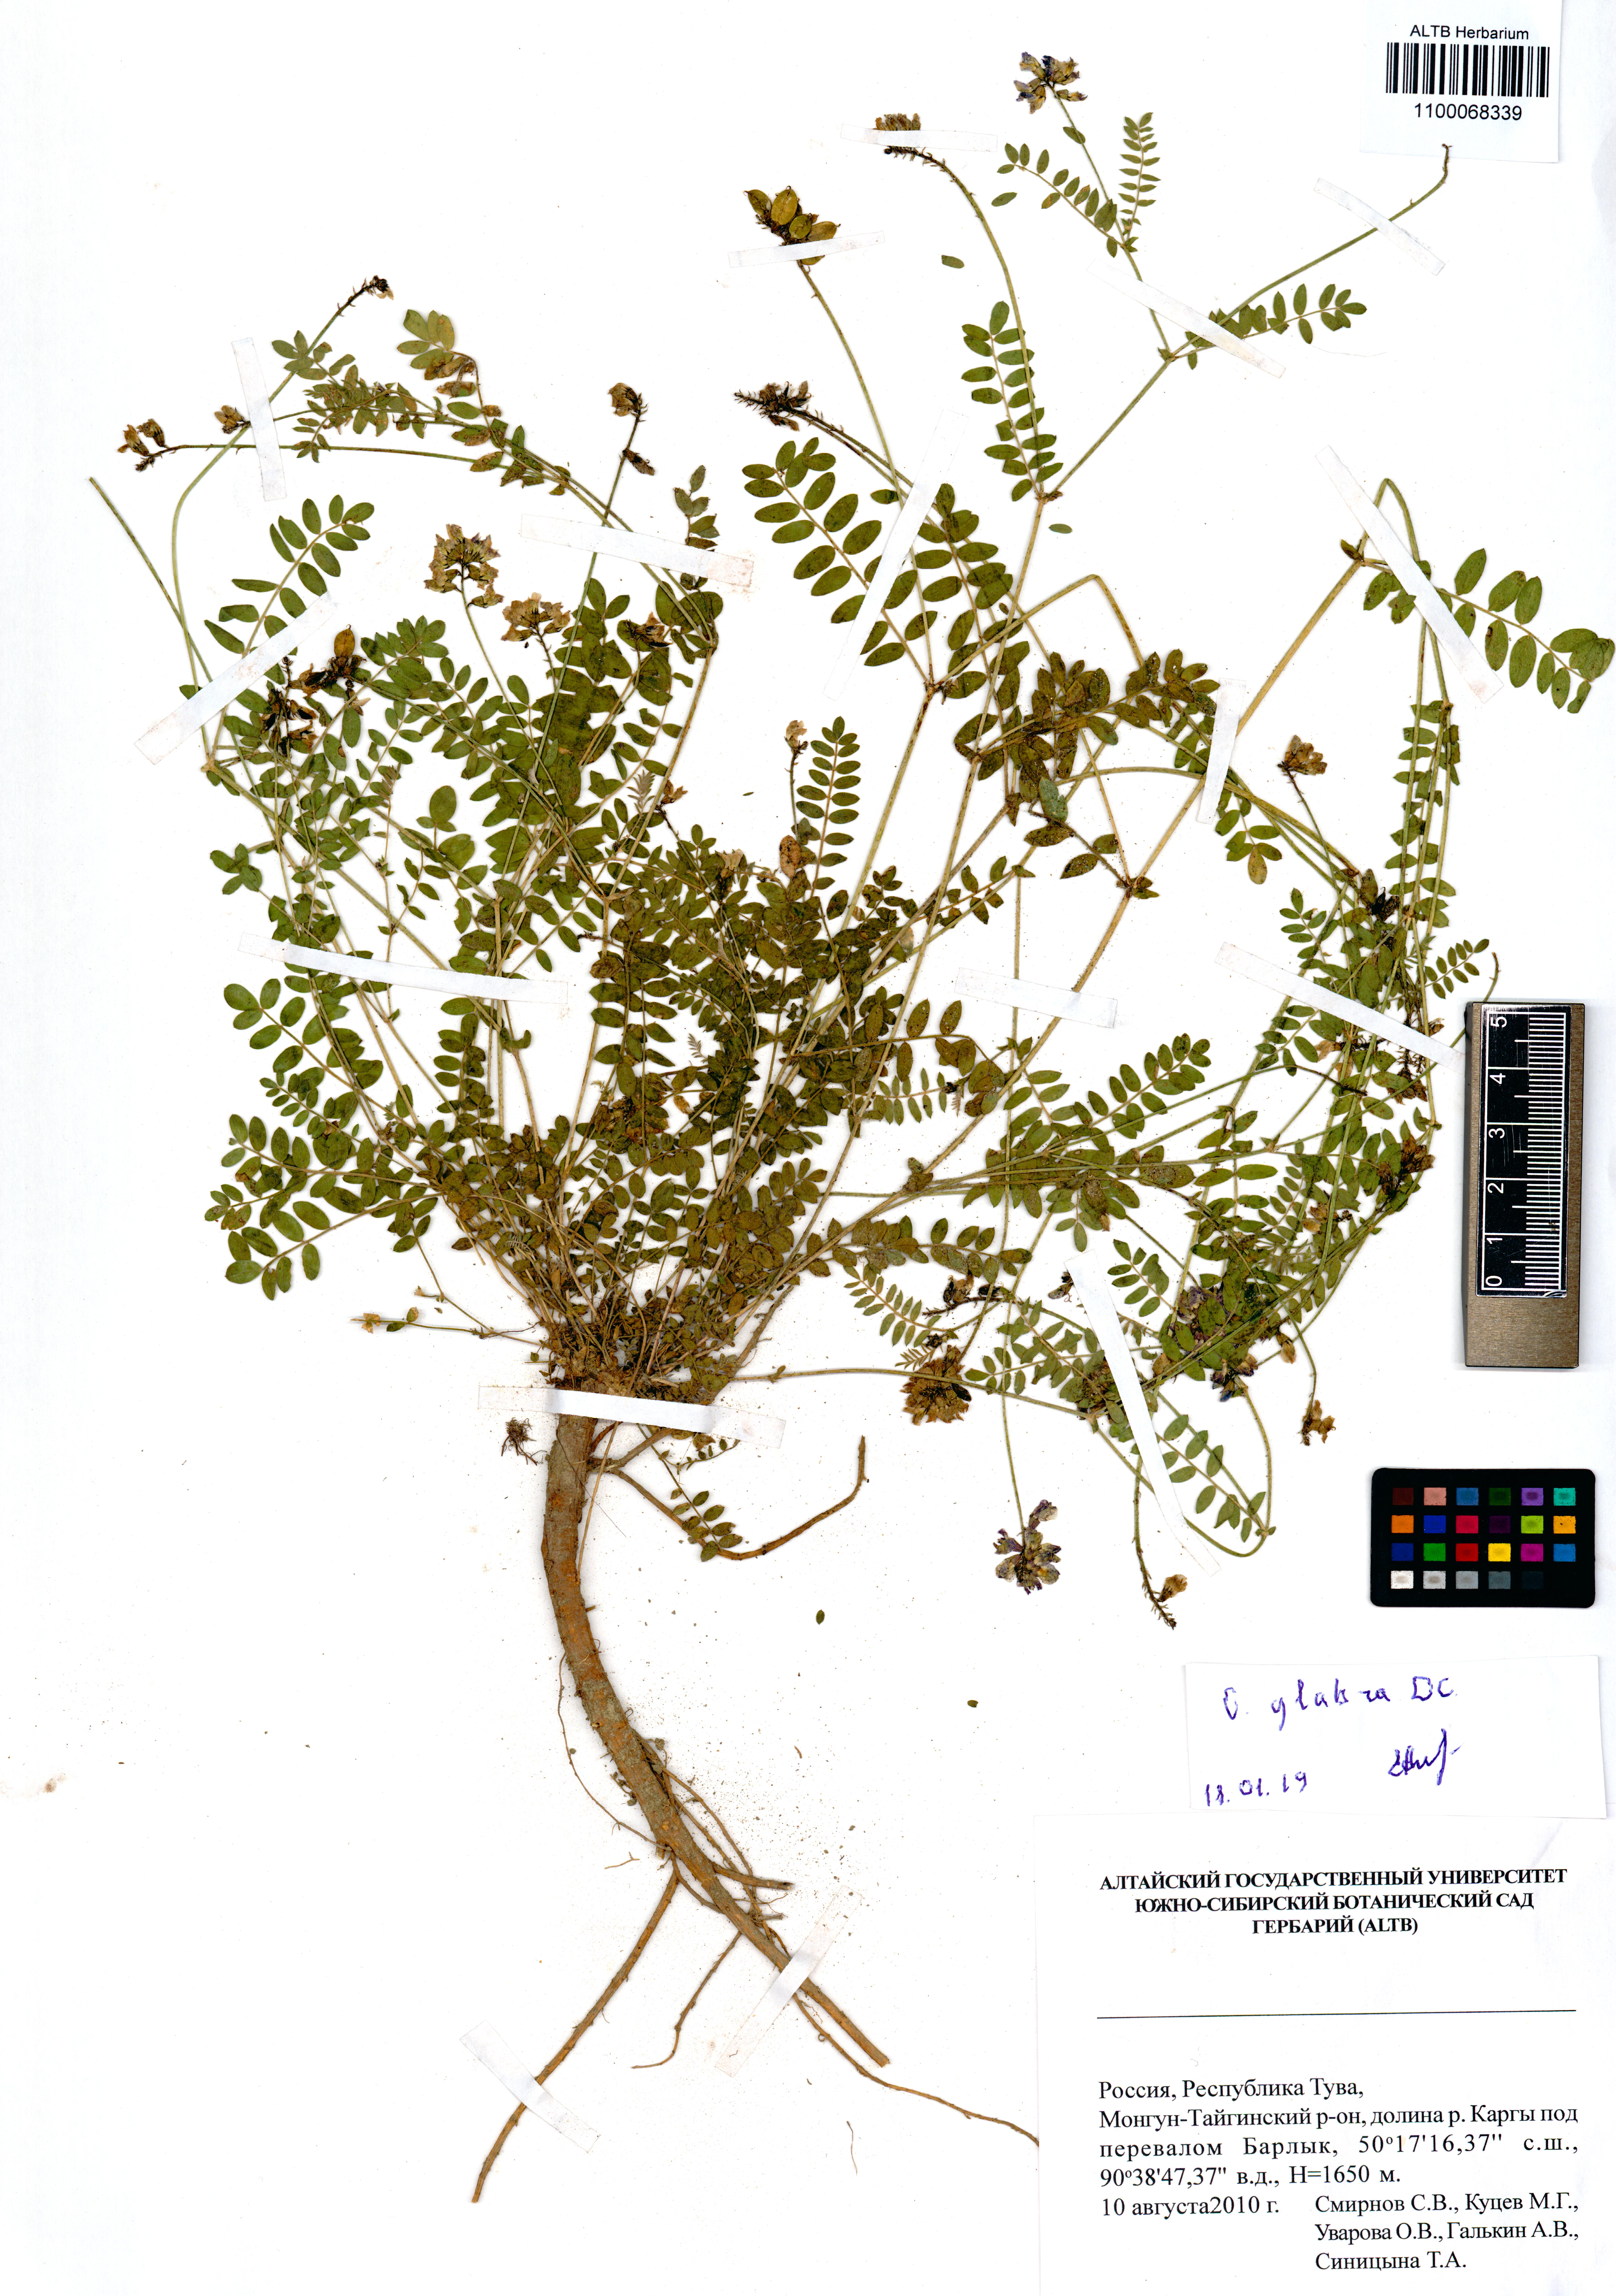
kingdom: Plantae
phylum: Tracheophyta
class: Magnoliopsida
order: Fabales
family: Fabaceae
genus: Oxytropis
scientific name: Oxytropis glabra
